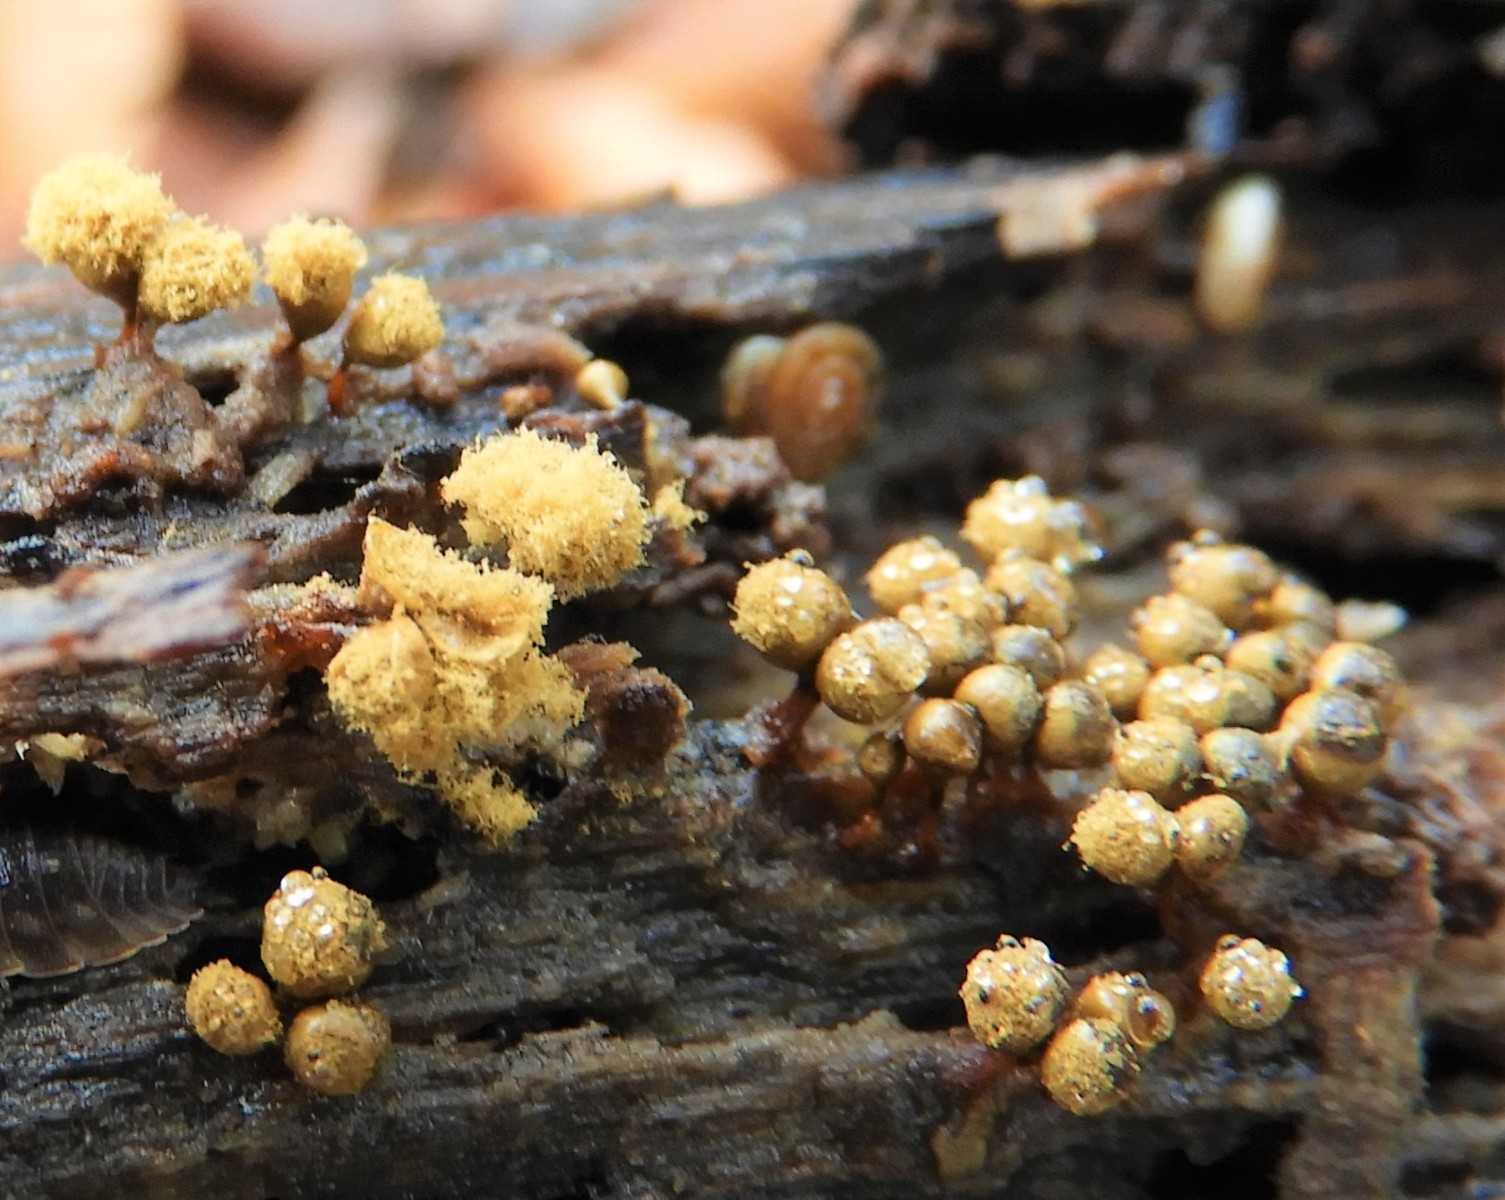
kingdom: Protozoa
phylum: Mycetozoa
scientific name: Mycetozoa
